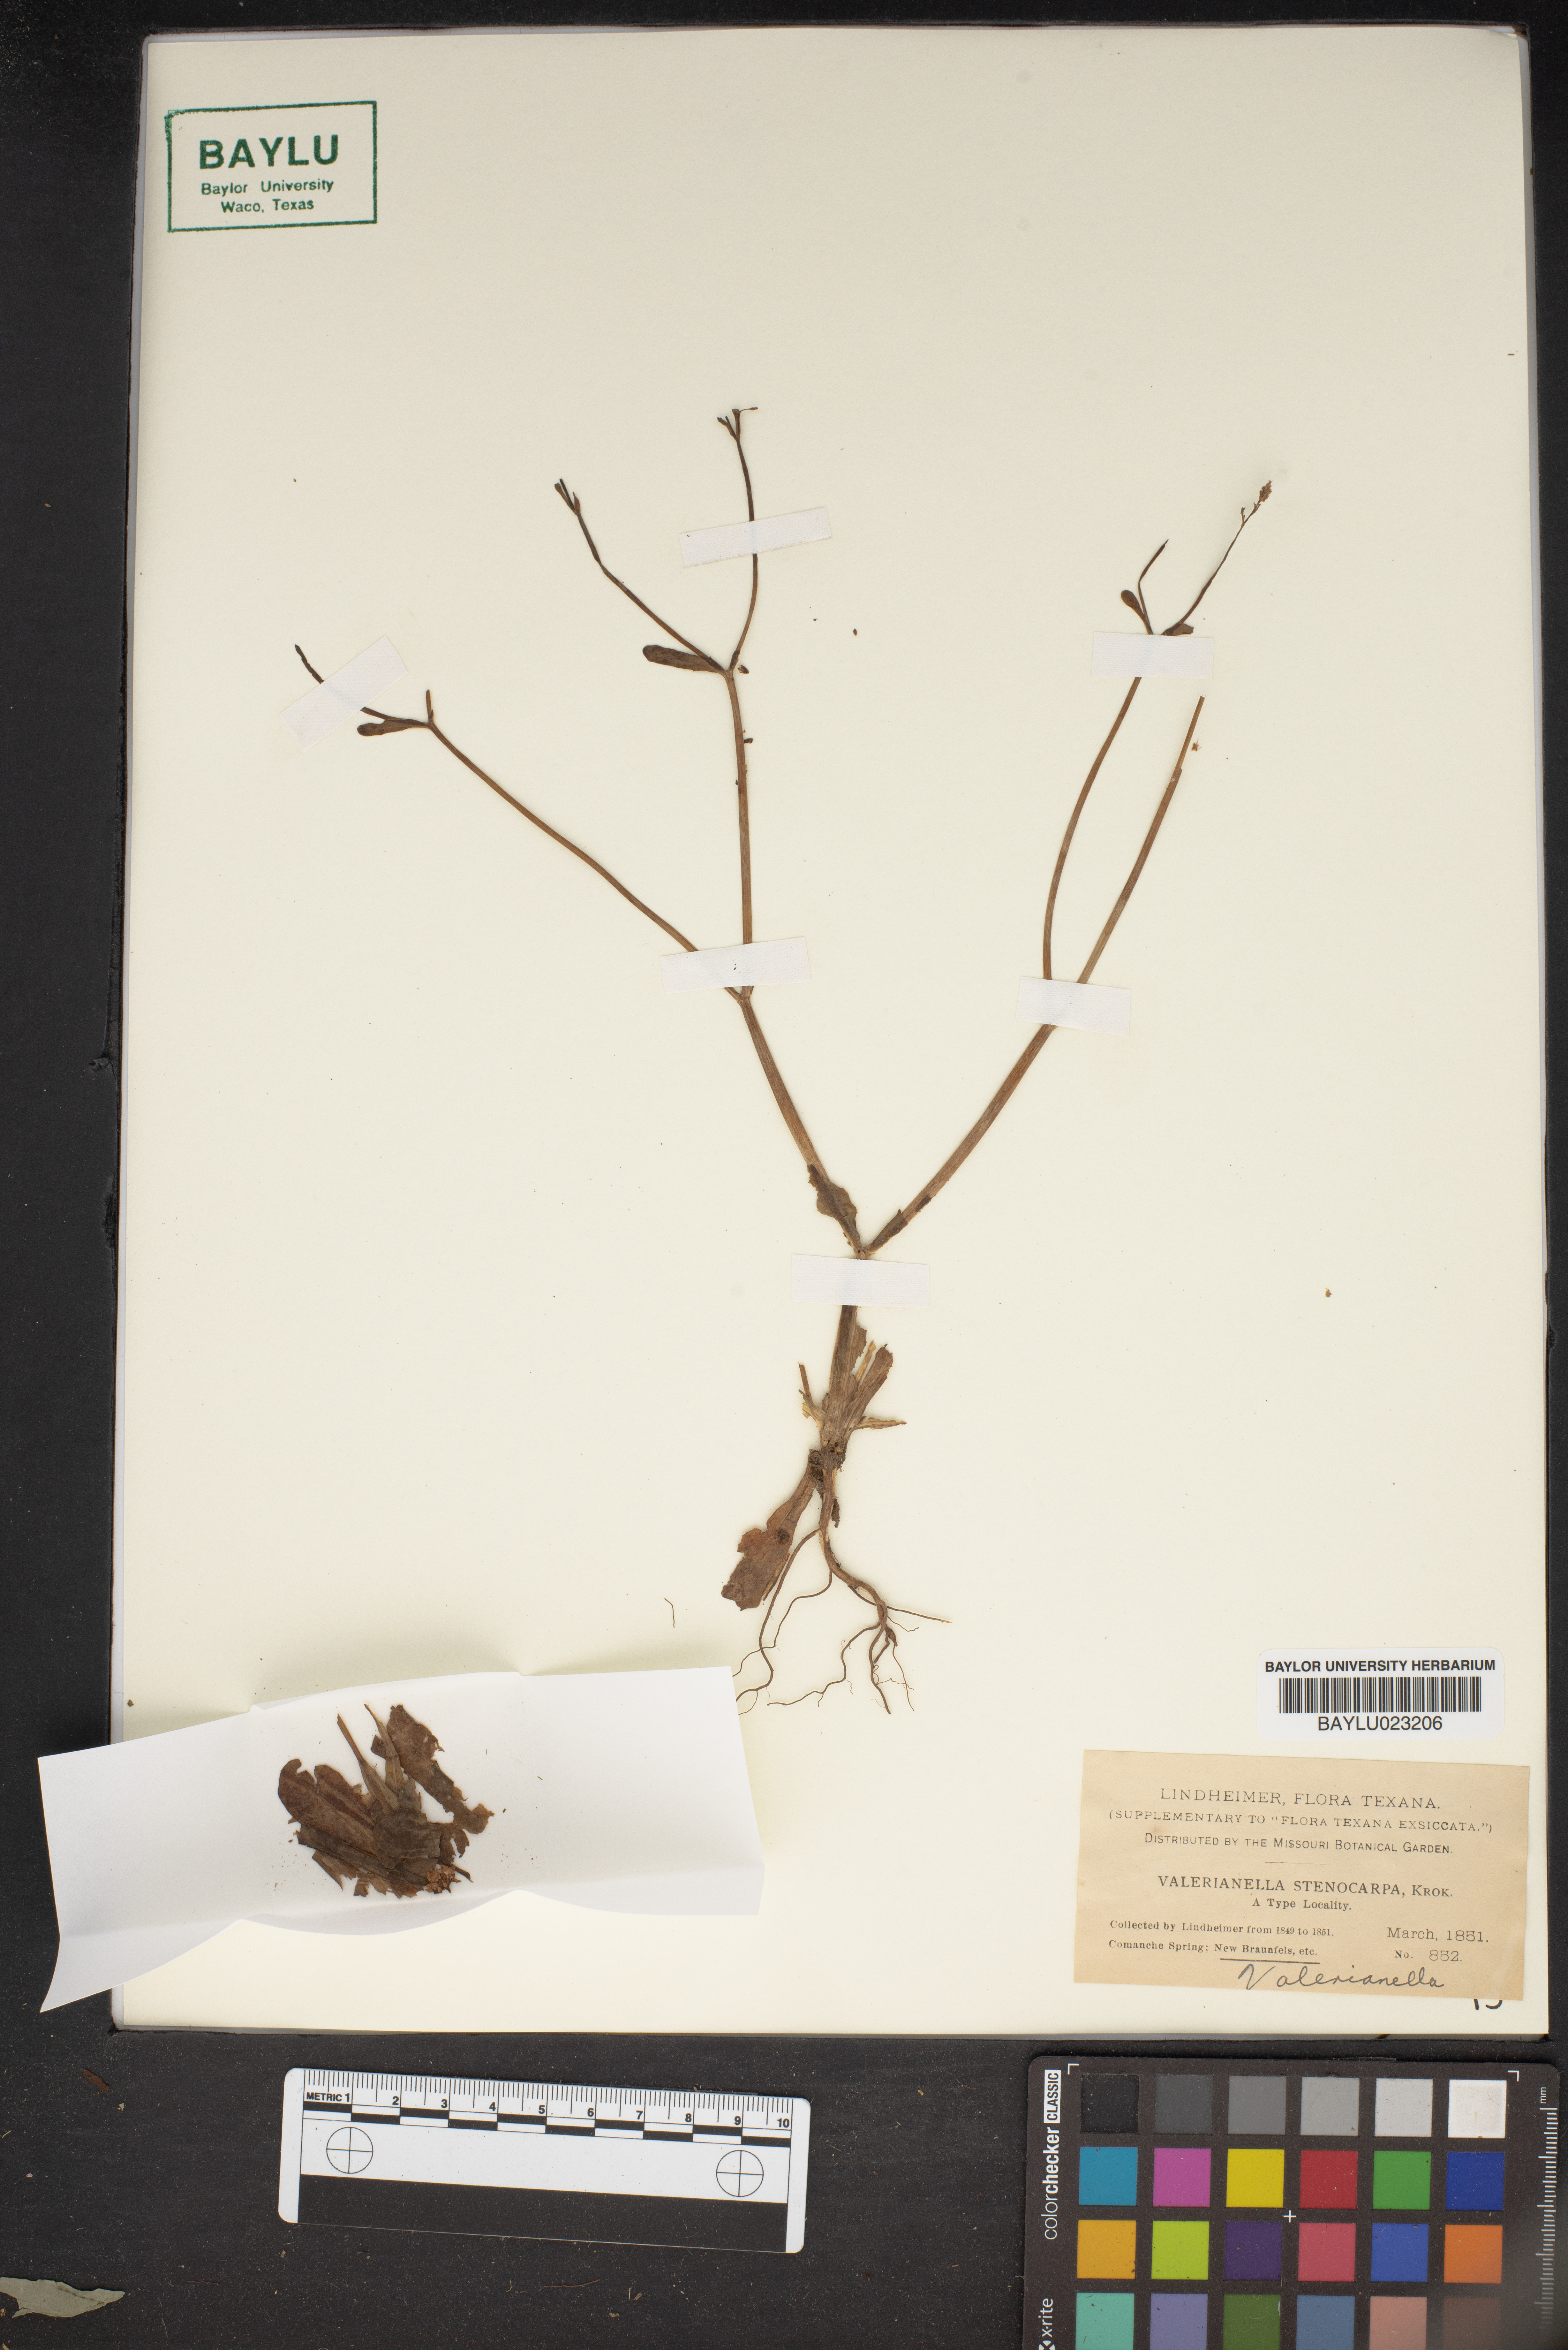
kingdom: Plantae
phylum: Tracheophyta
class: Magnoliopsida
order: Dipsacales
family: Caprifoliaceae
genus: Valerianella
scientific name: Valerianella stenocarpa
